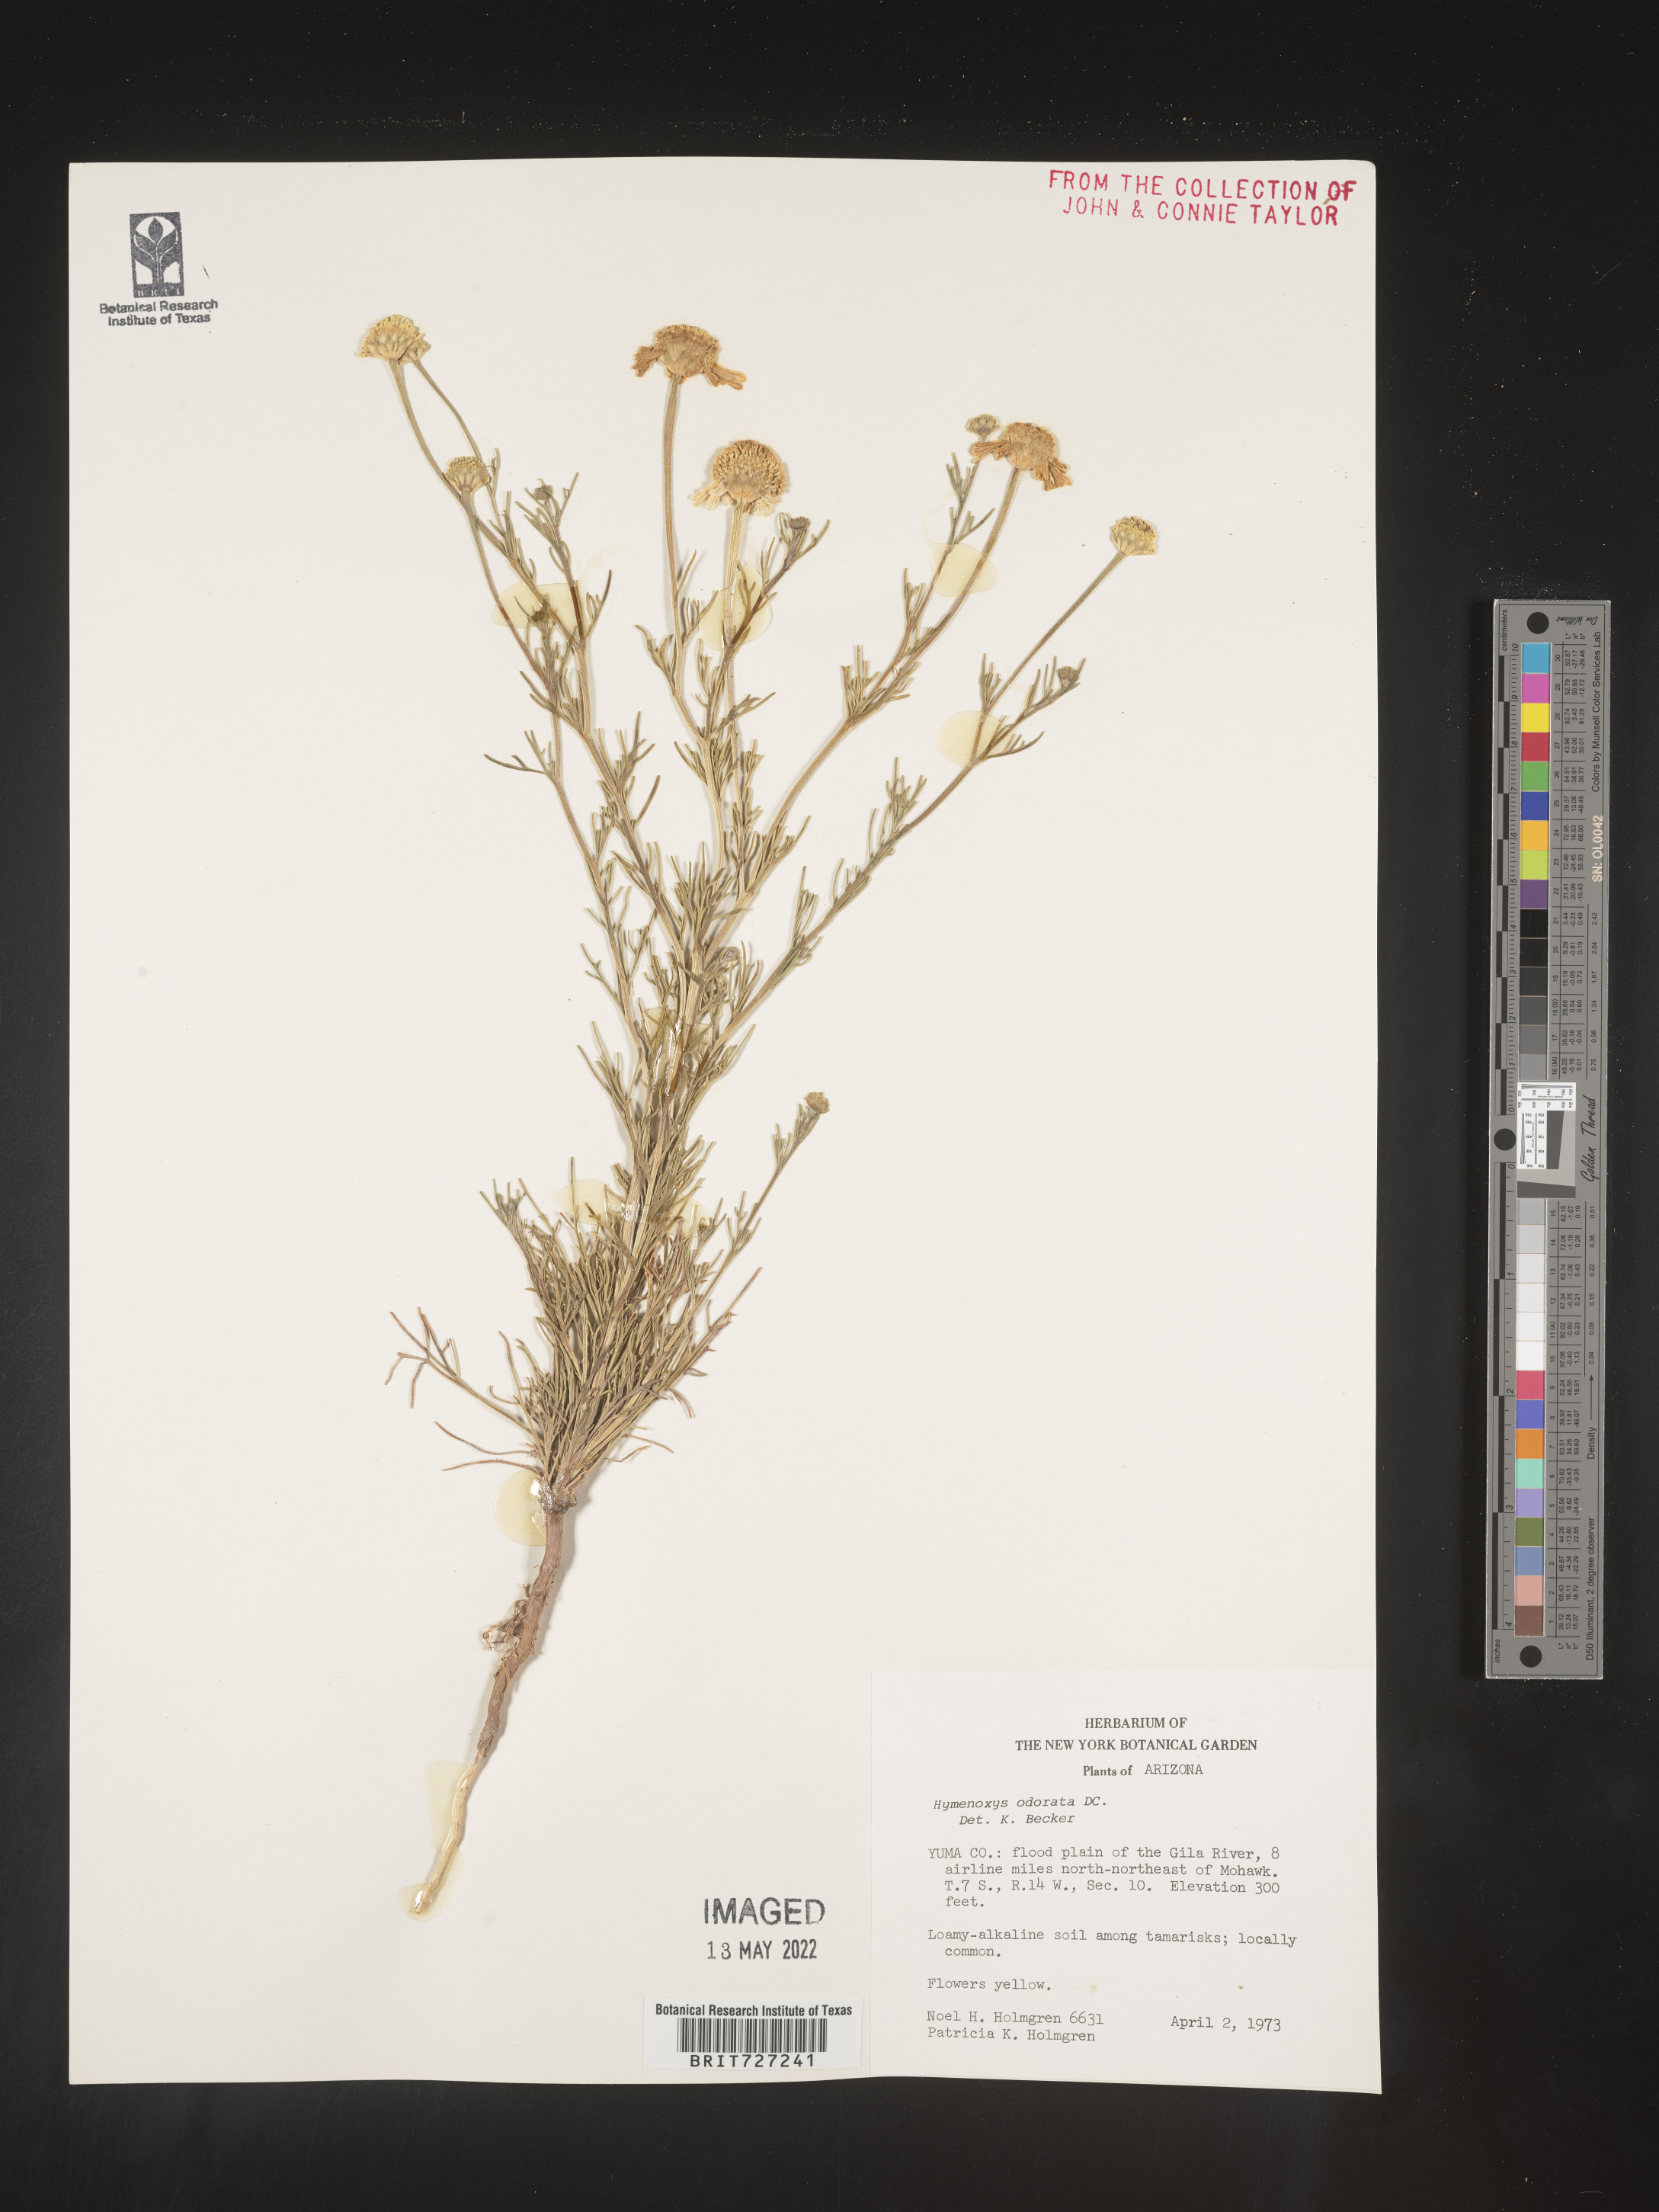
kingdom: Plantae
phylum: Tracheophyta
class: Magnoliopsida
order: Asterales
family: Asteraceae
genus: Hymenoxys
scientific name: Hymenoxys odorata
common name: Bitter rubberweed
